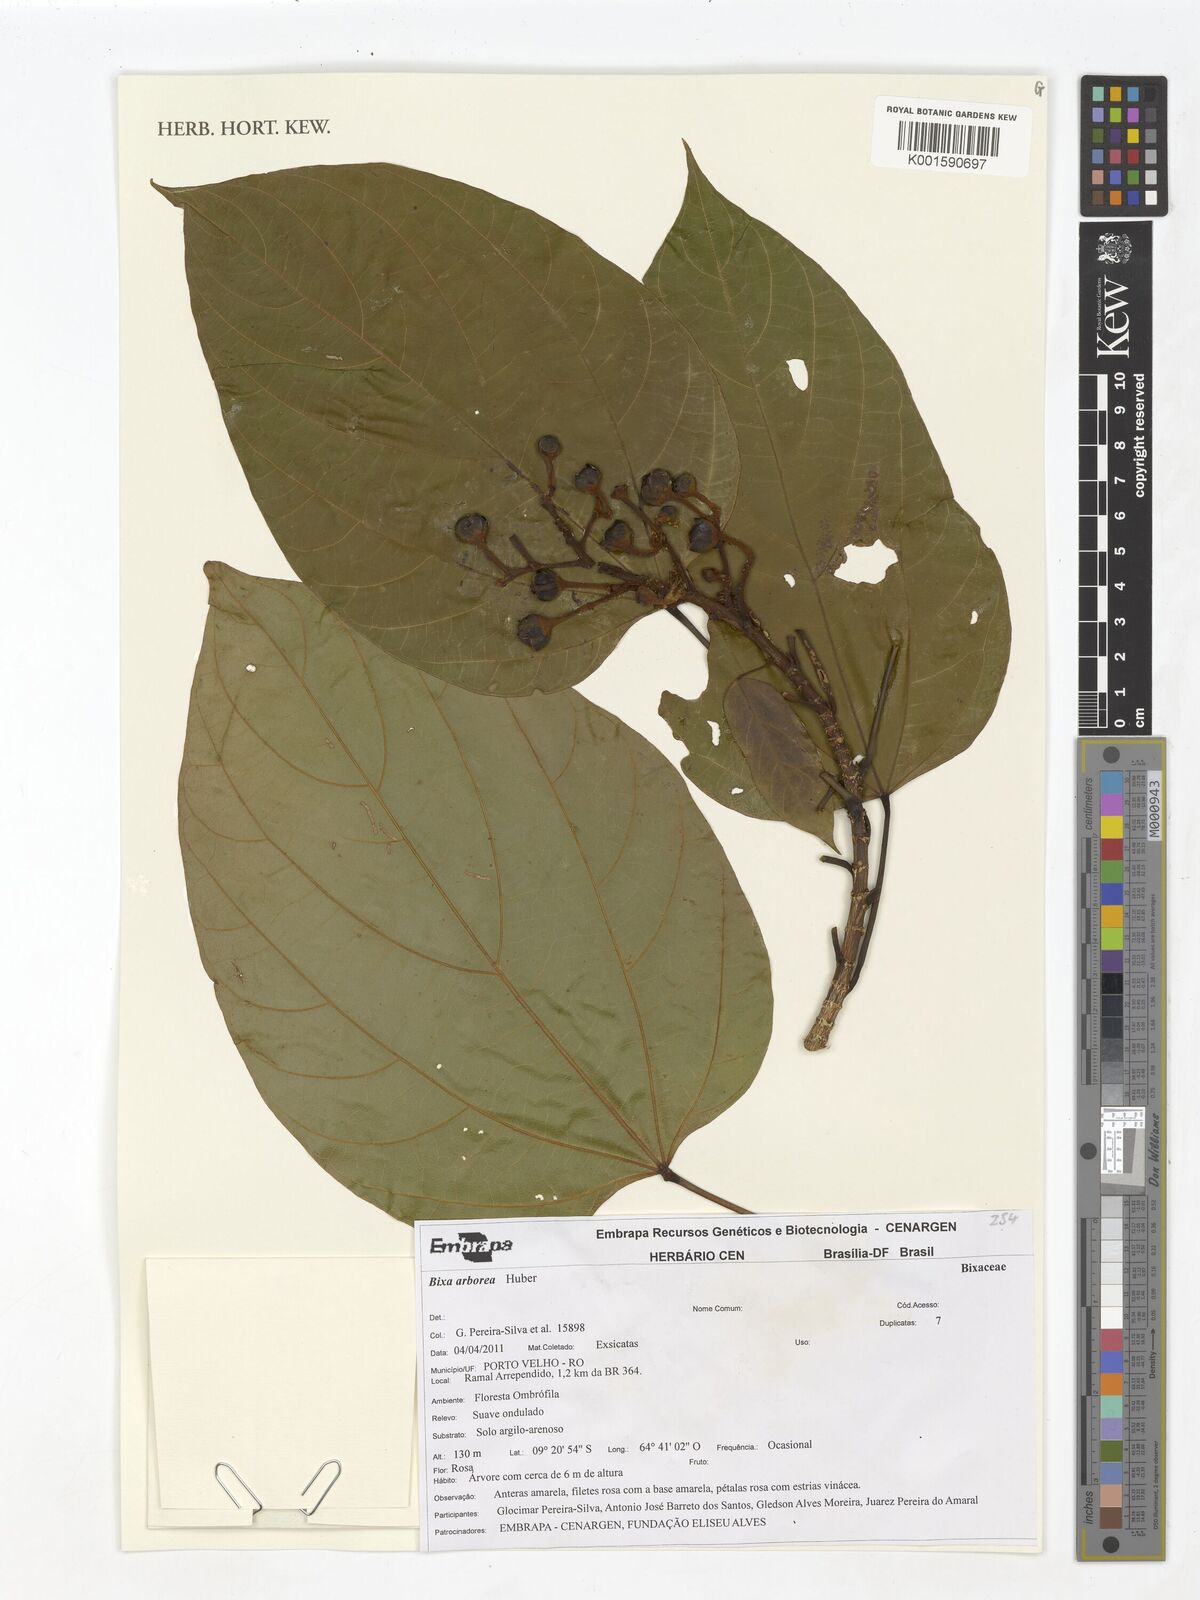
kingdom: Plantae
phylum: Tracheophyta
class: Magnoliopsida
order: Malvales
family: Bixaceae
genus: Bixa
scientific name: Bixa arborea
